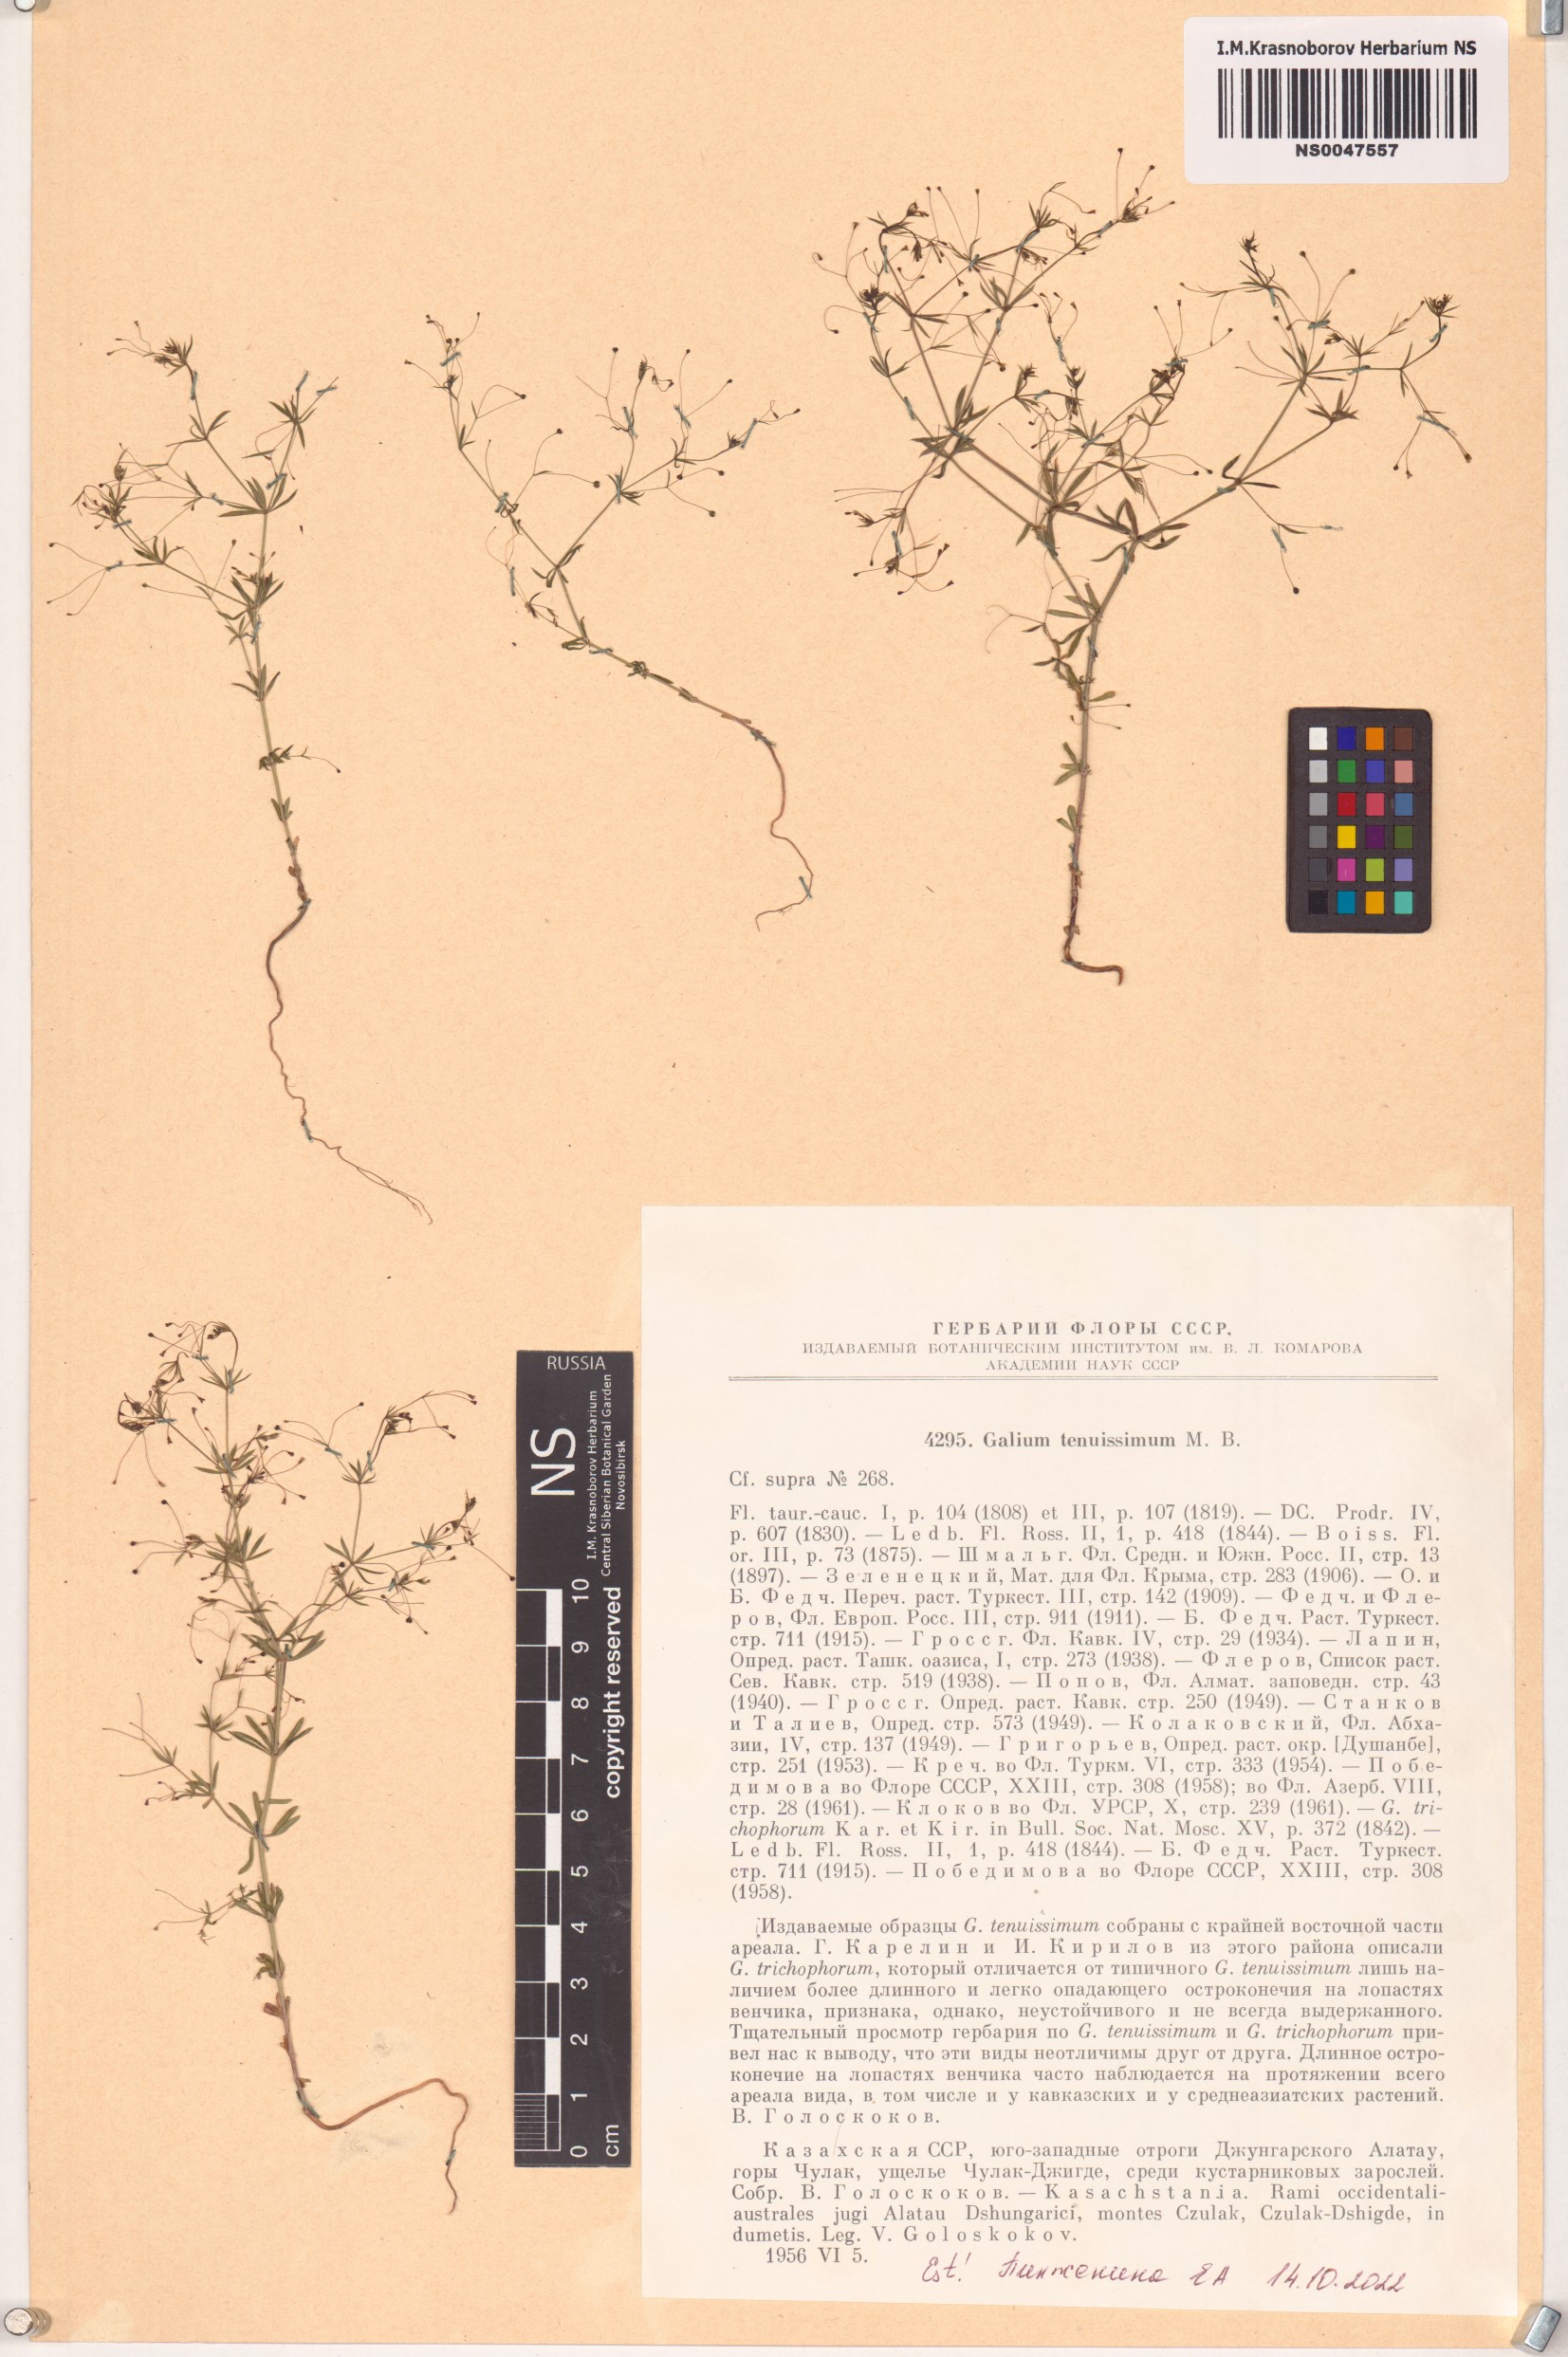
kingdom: Plantae
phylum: Tracheophyta
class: Magnoliopsida
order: Gentianales
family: Rubiaceae
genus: Galium
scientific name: Galium tenuissimum
